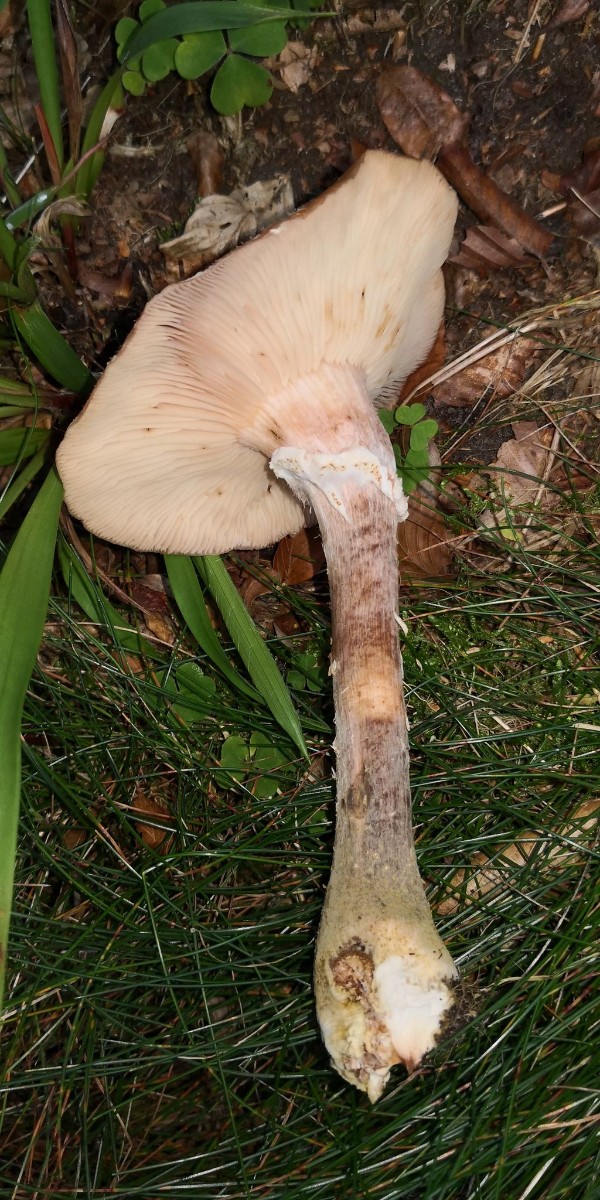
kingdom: Fungi
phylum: Basidiomycota
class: Agaricomycetes
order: Agaricales
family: Physalacriaceae
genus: Armillaria
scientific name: Armillaria lutea
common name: køllestokket honningsvamp
